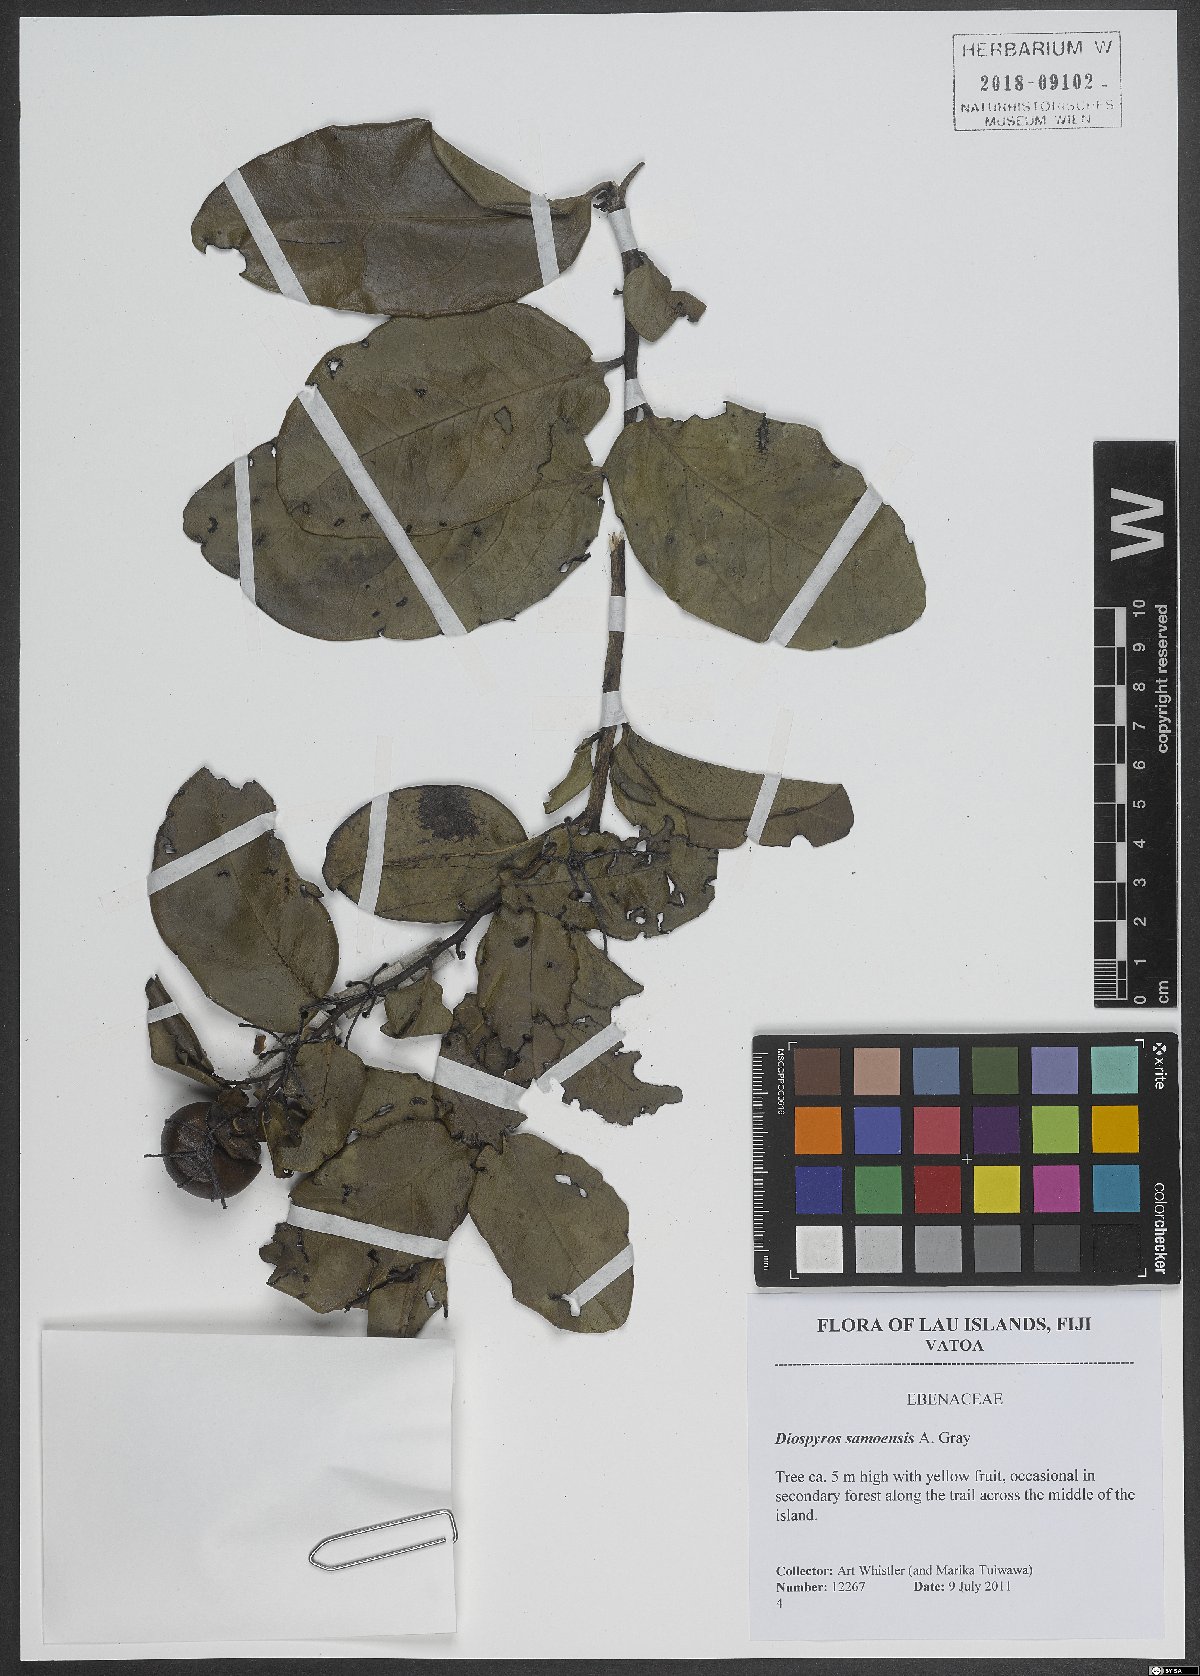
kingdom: Plantae
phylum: Tracheophyta
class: Magnoliopsida
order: Ericales
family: Ebenaceae
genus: Diospyros
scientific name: Diospyros samoensis
